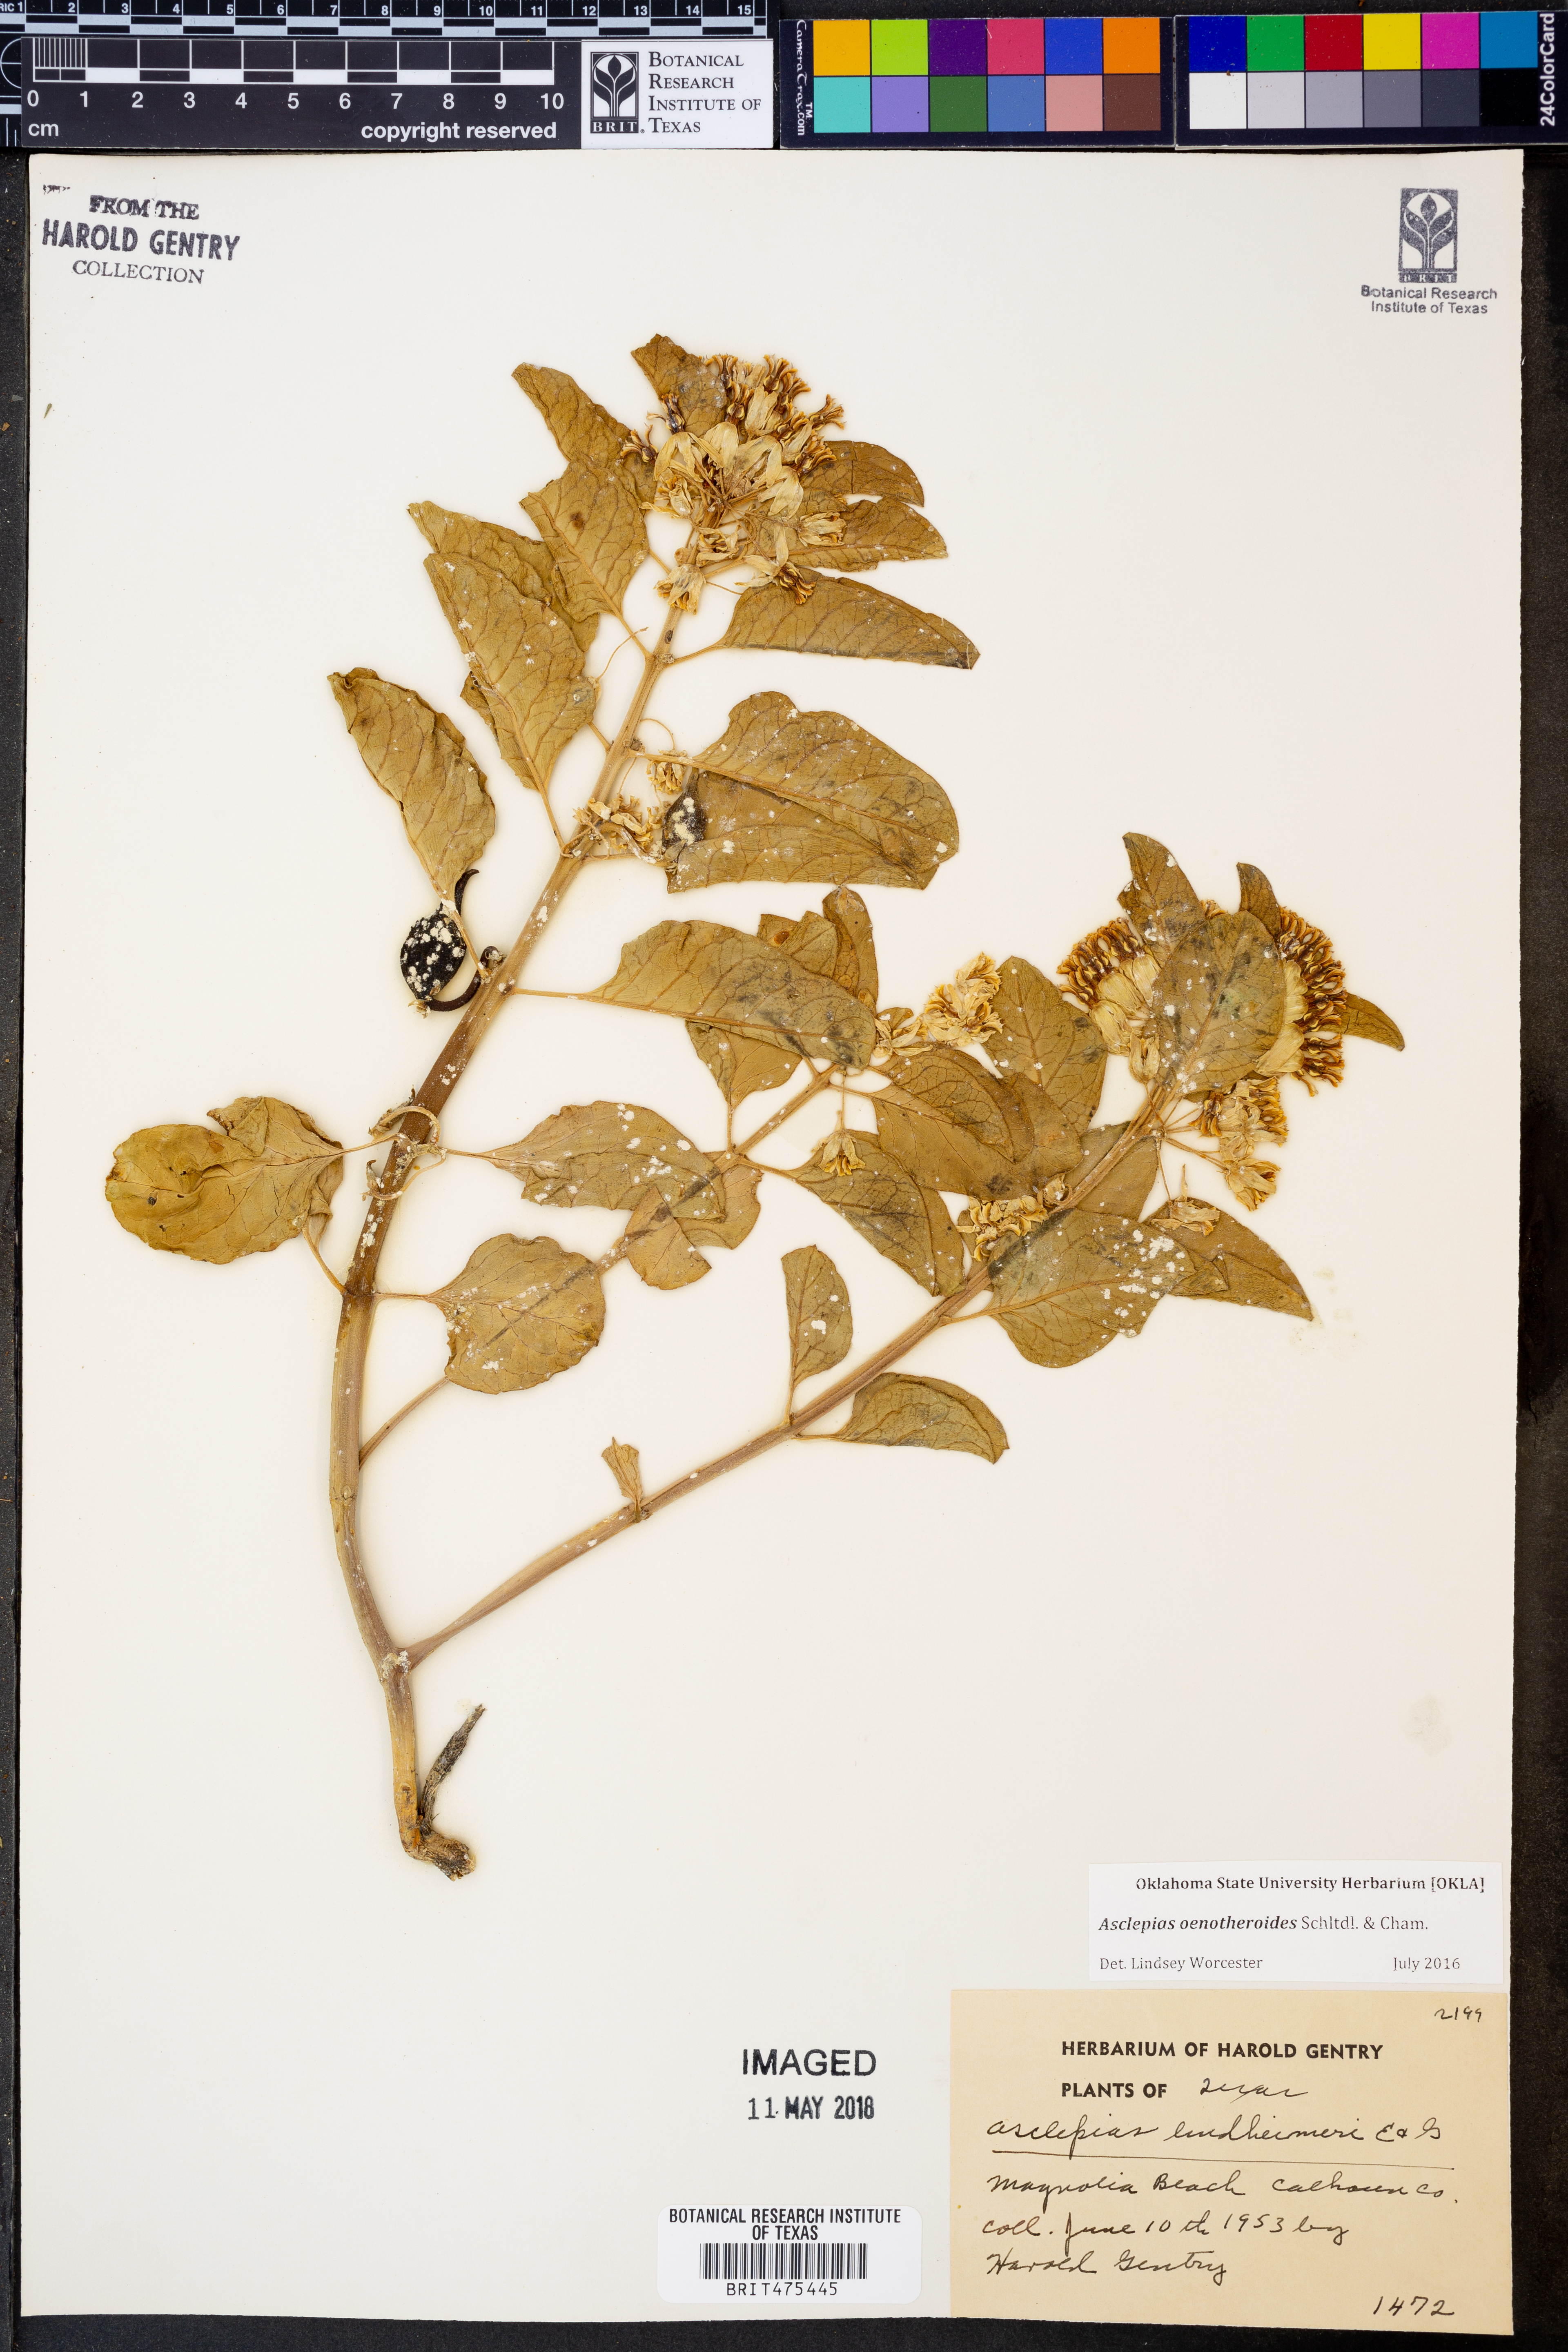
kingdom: Plantae
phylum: Tracheophyta
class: Magnoliopsida
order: Gentianales
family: Apocynaceae
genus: Asclepias
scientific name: Asclepias oenotheroides
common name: Zizotes milkweed
